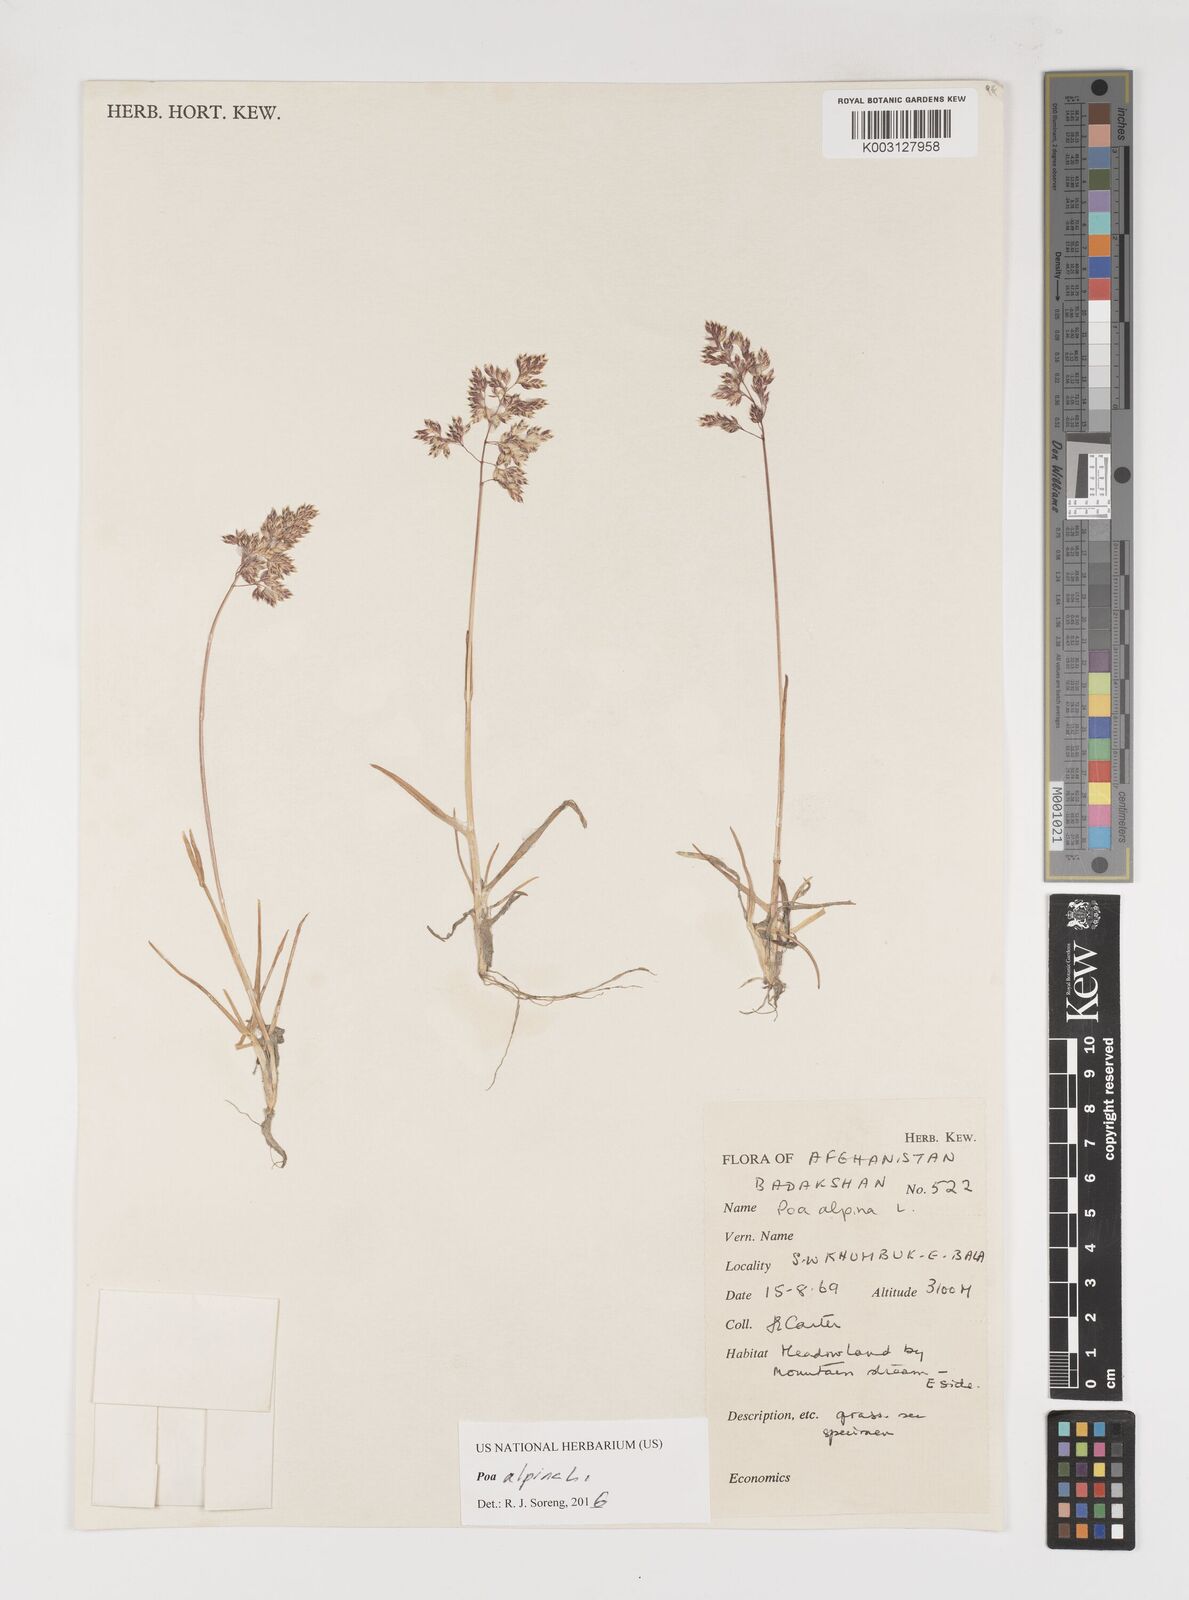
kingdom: Plantae
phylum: Tracheophyta
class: Liliopsida
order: Poales
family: Poaceae
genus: Poa
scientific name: Poa alpina
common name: Alpine bluegrass
